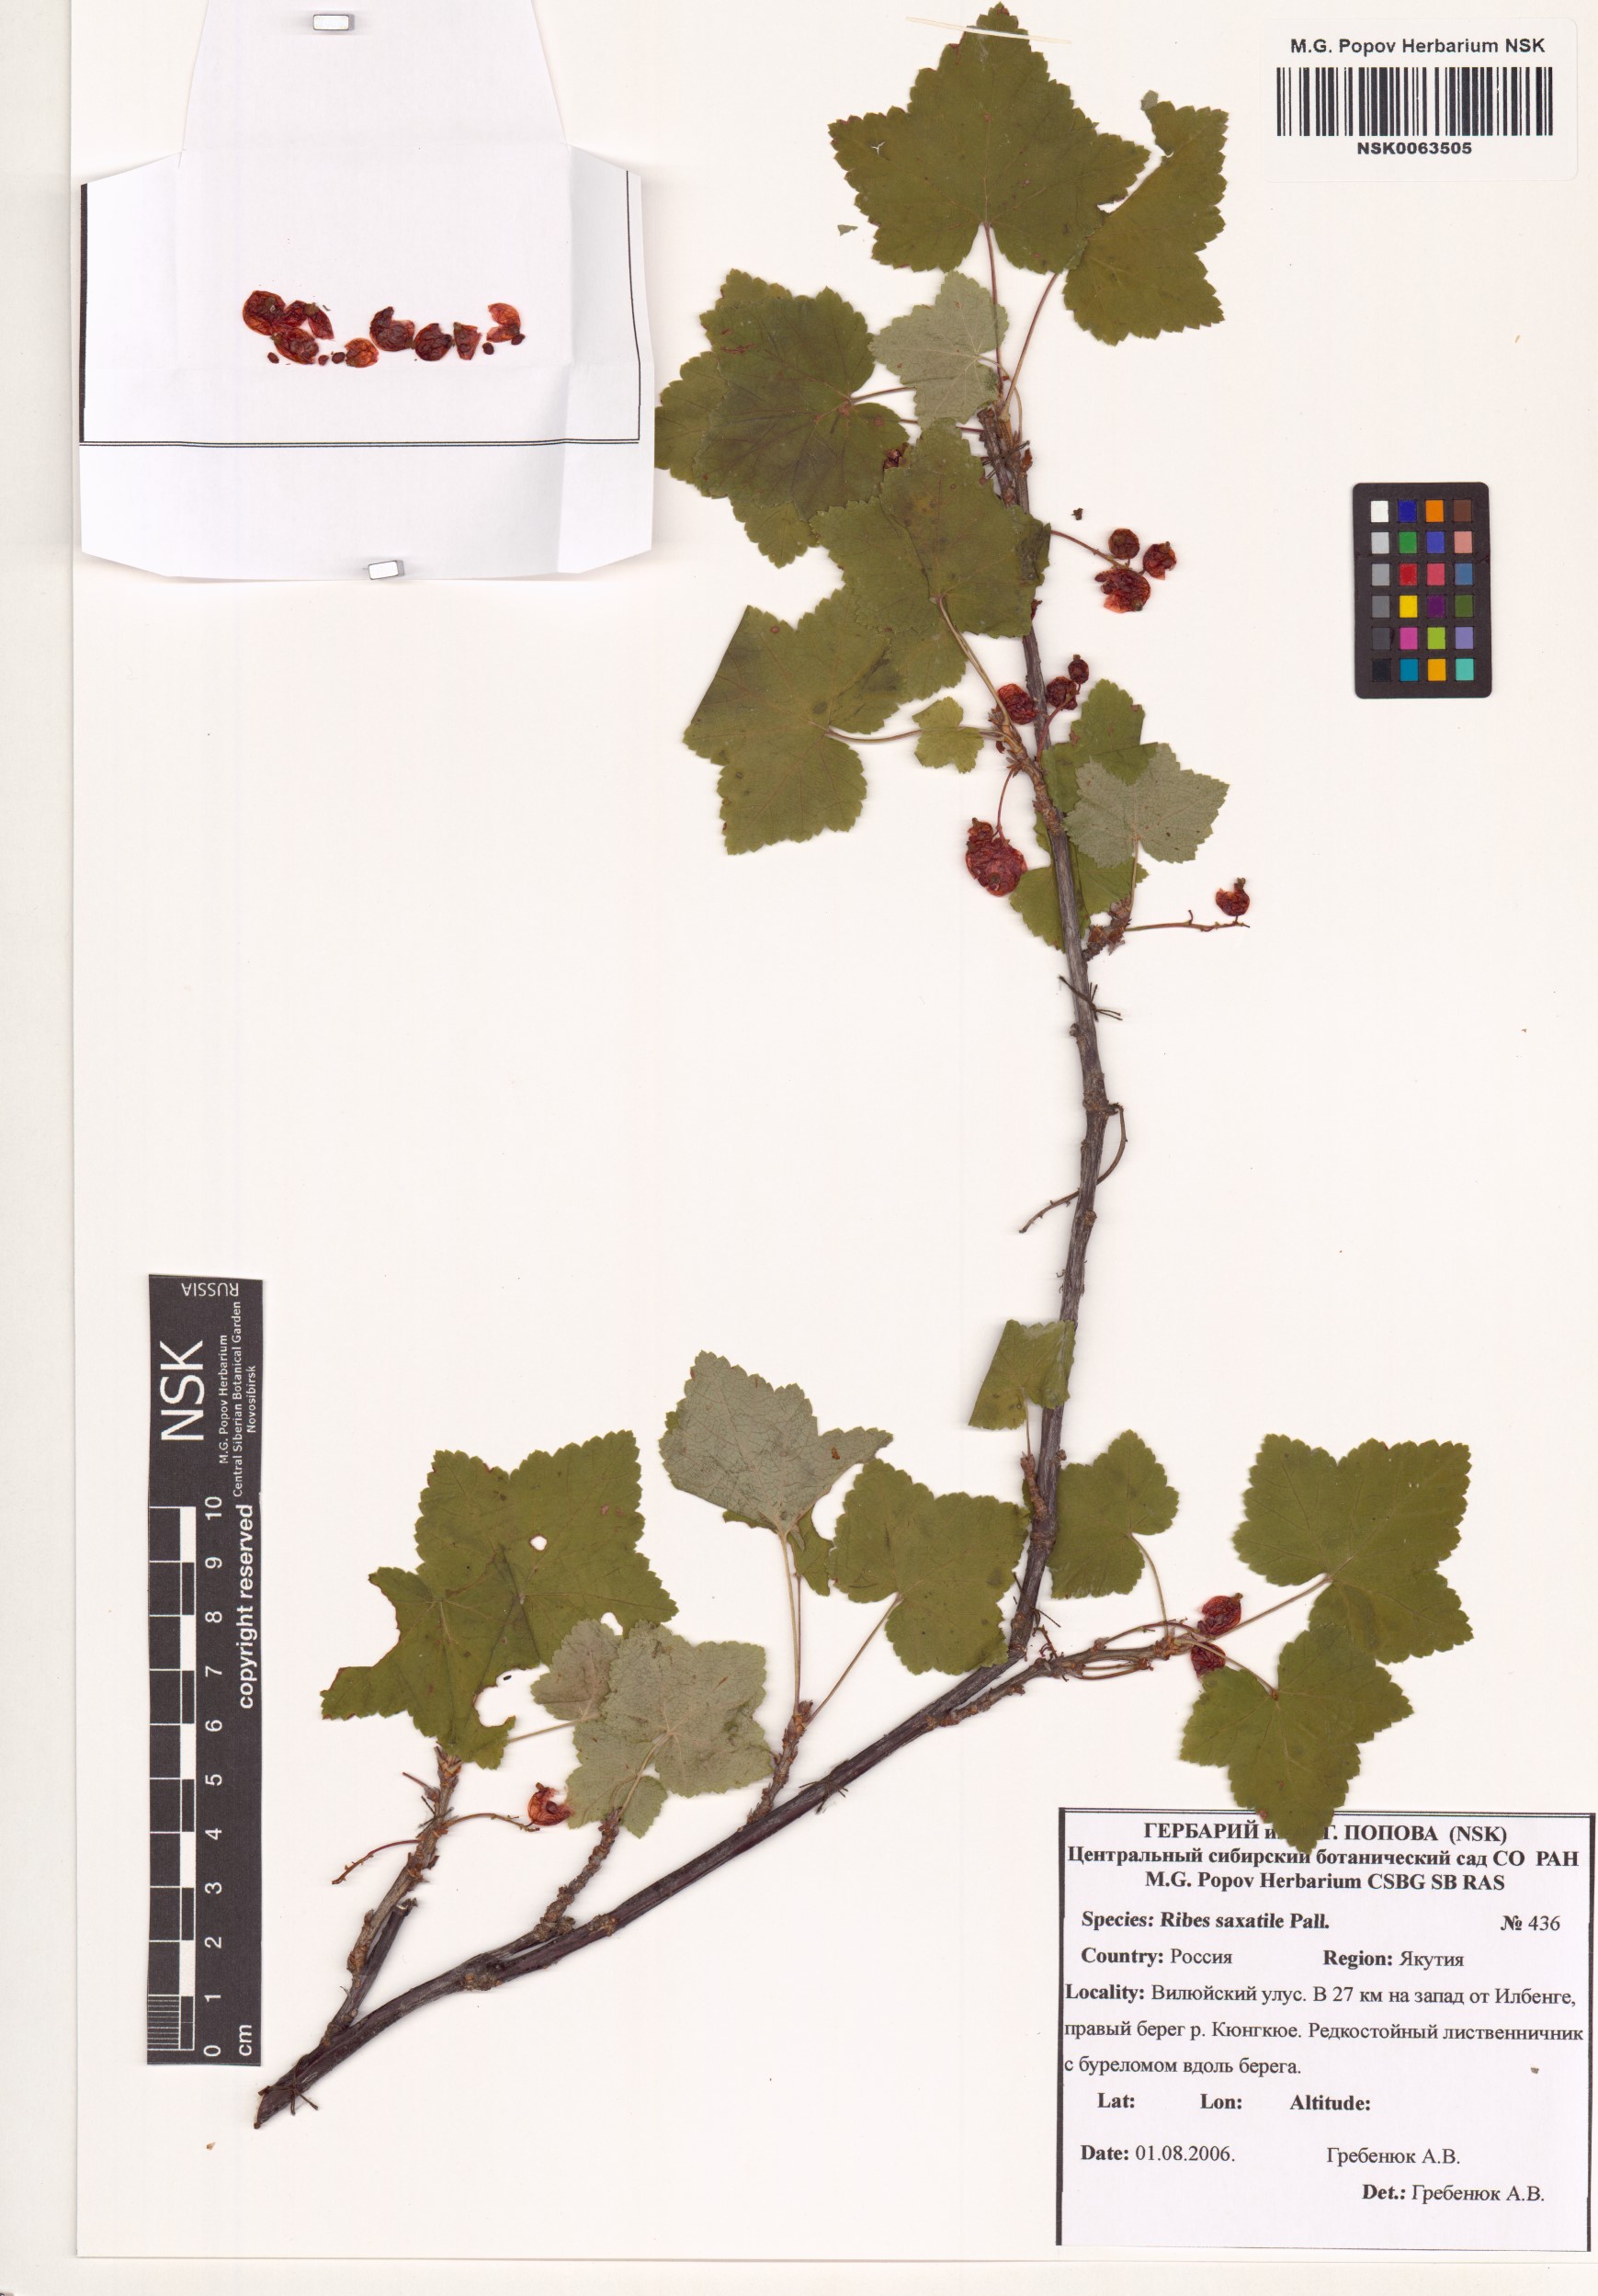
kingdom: Plantae
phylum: Tracheophyta
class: Magnoliopsida
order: Saxifragales
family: Grossulariaceae
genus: Ribes
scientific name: Ribes saxatile
